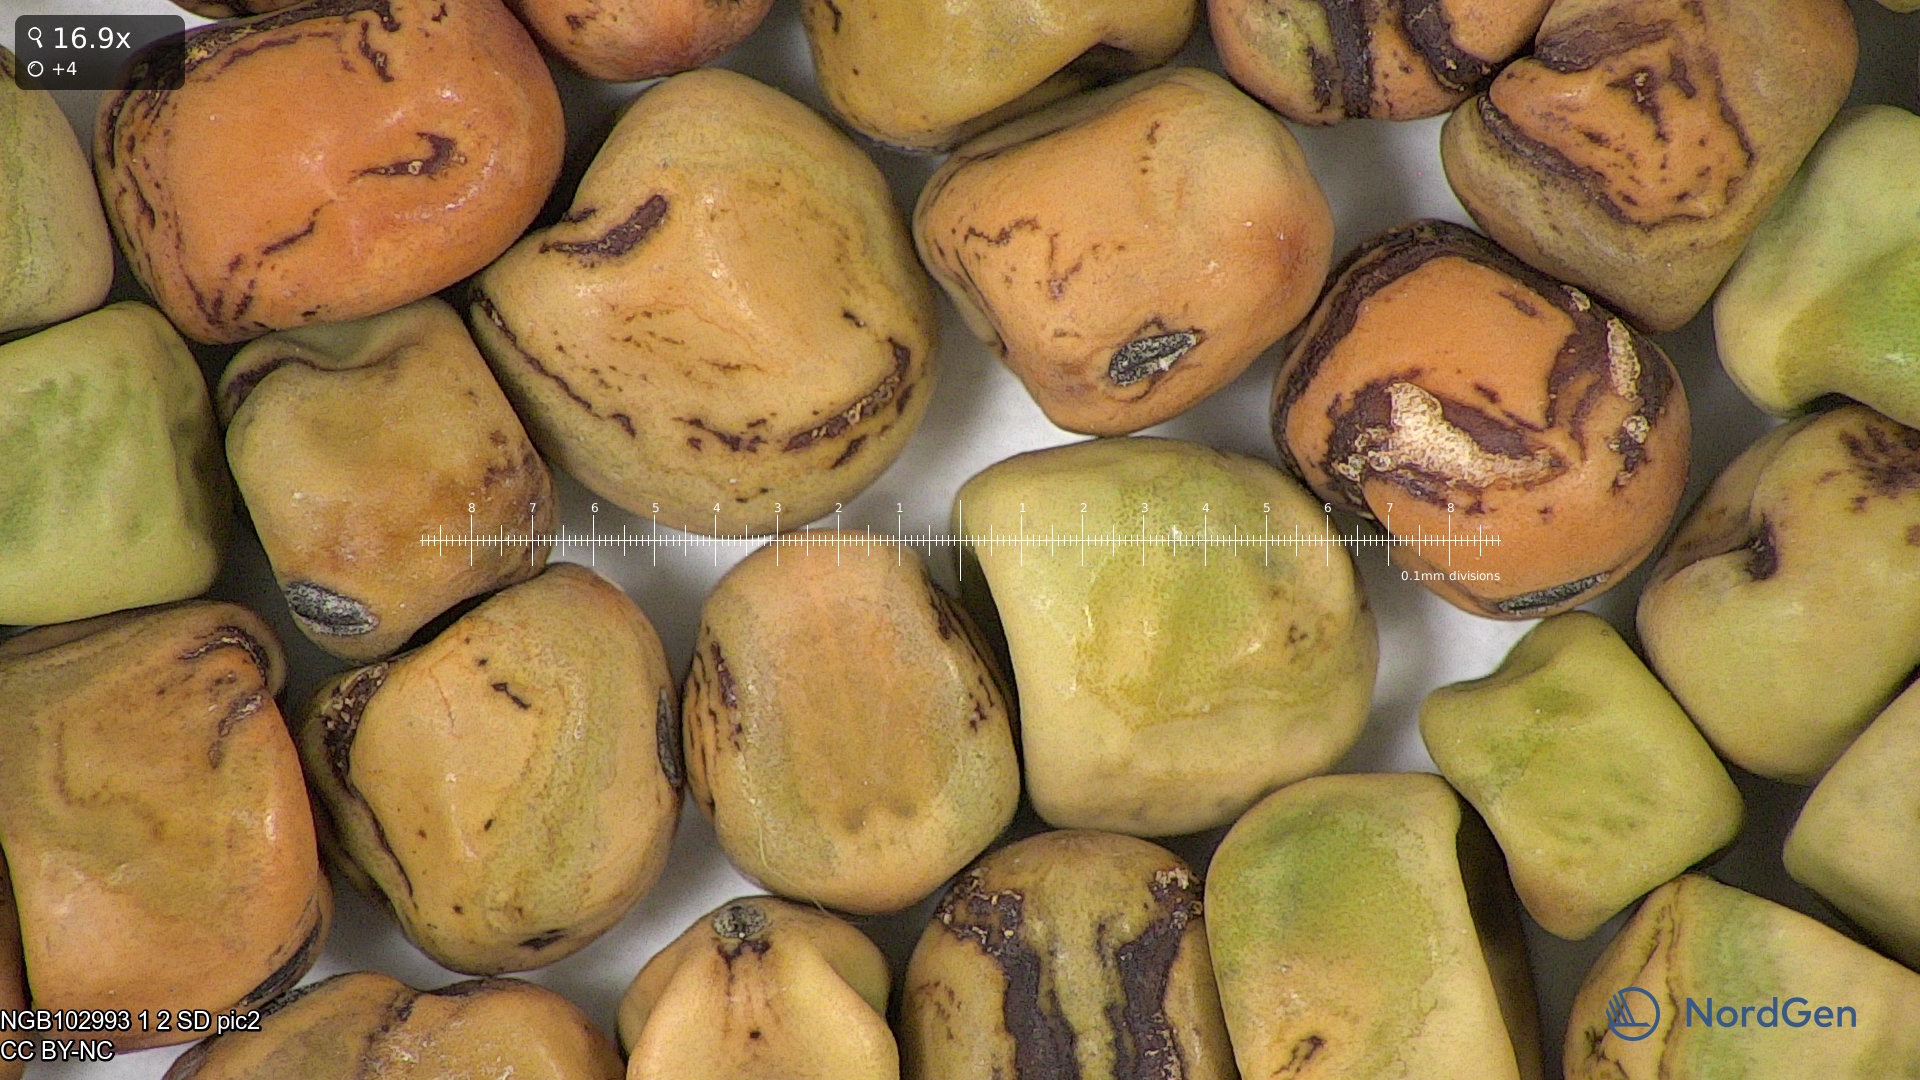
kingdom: Plantae
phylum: Tracheophyta
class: Magnoliopsida
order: Fabales
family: Fabaceae
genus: Lathyrus
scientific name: Lathyrus oleraceus
